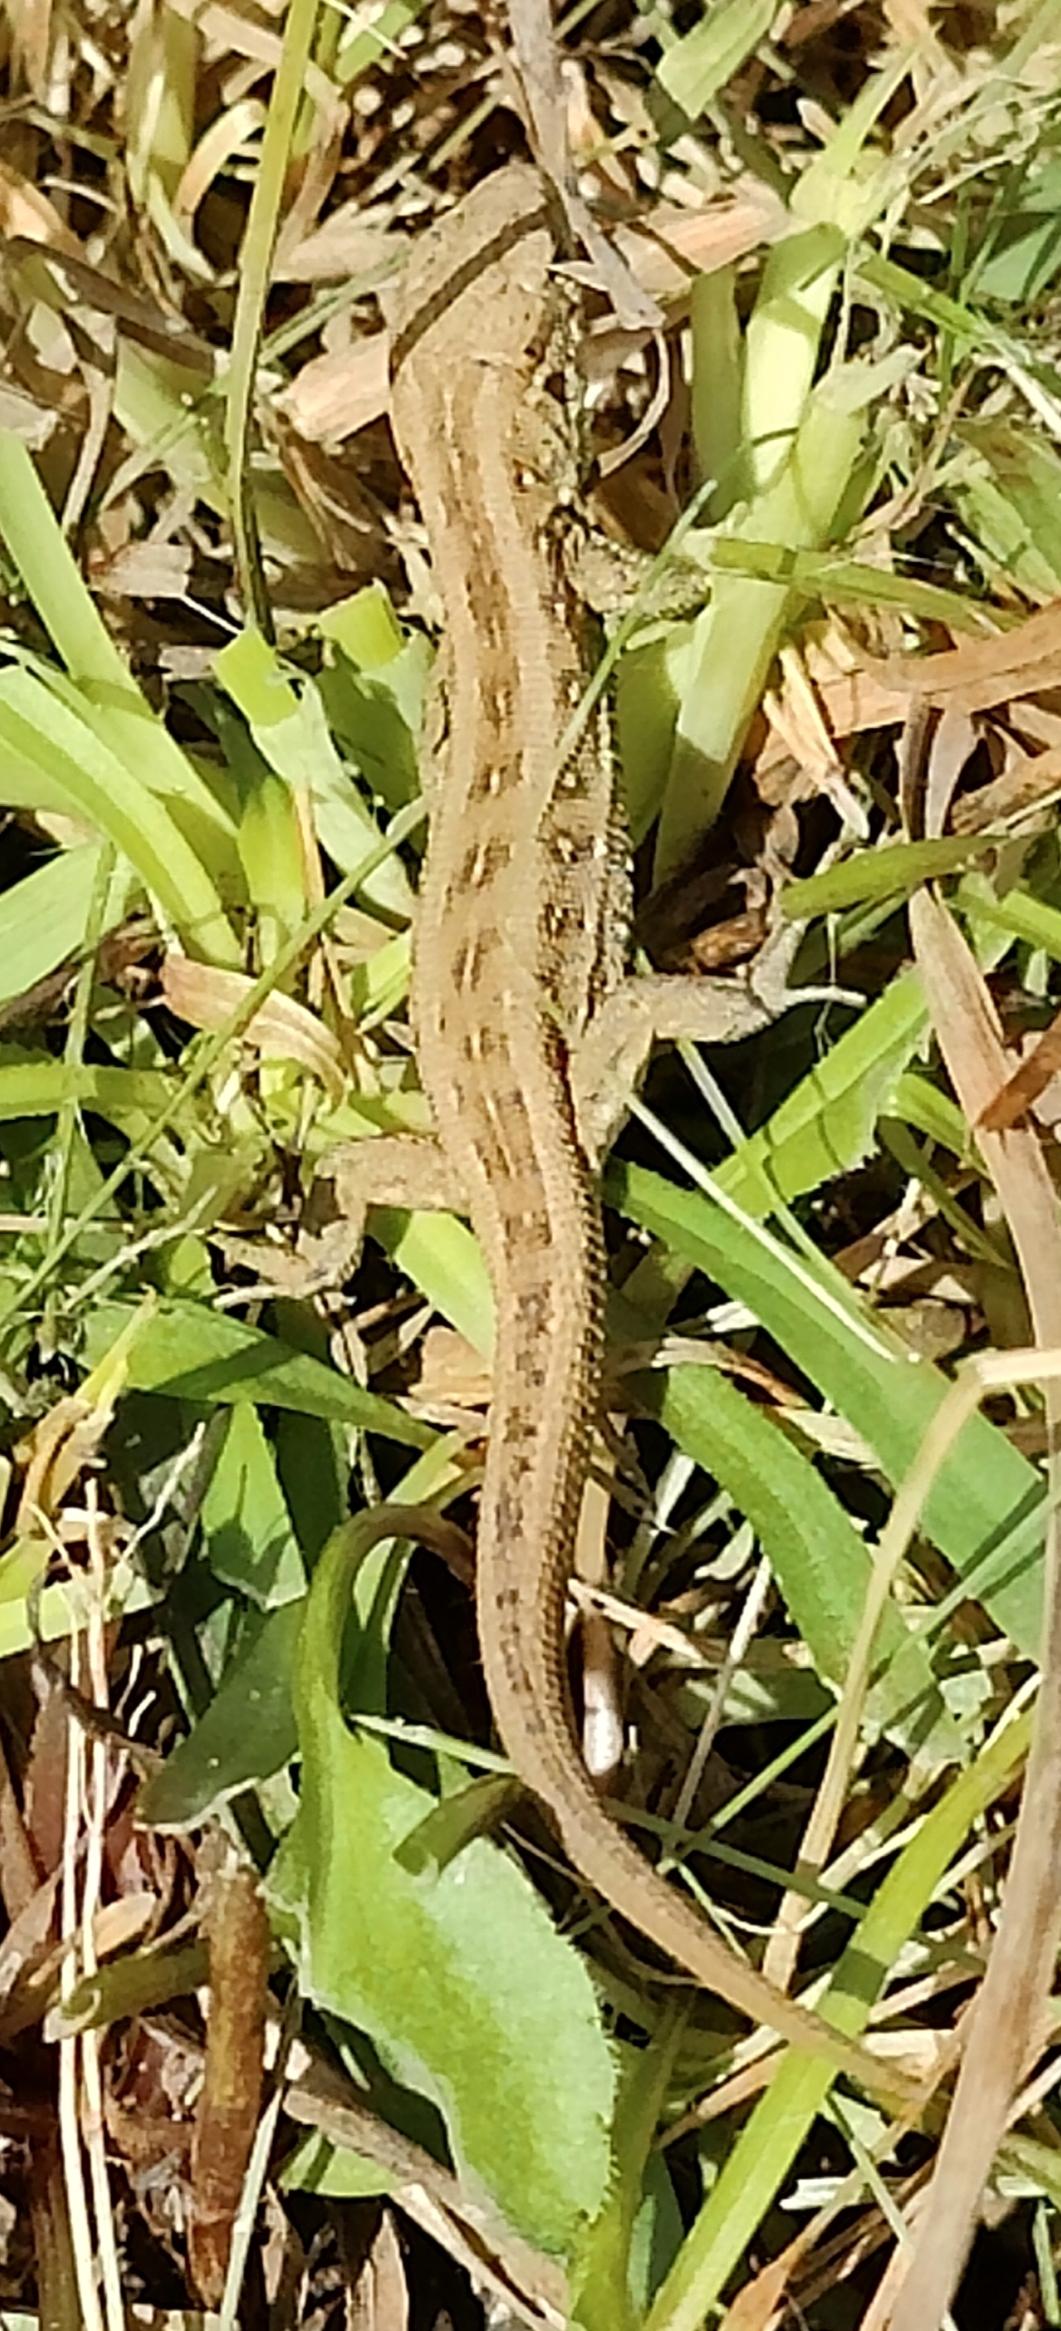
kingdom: Animalia
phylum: Chordata
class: Squamata
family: Lacertidae
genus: Lacerta
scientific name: Lacerta agilis
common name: Markfirben
